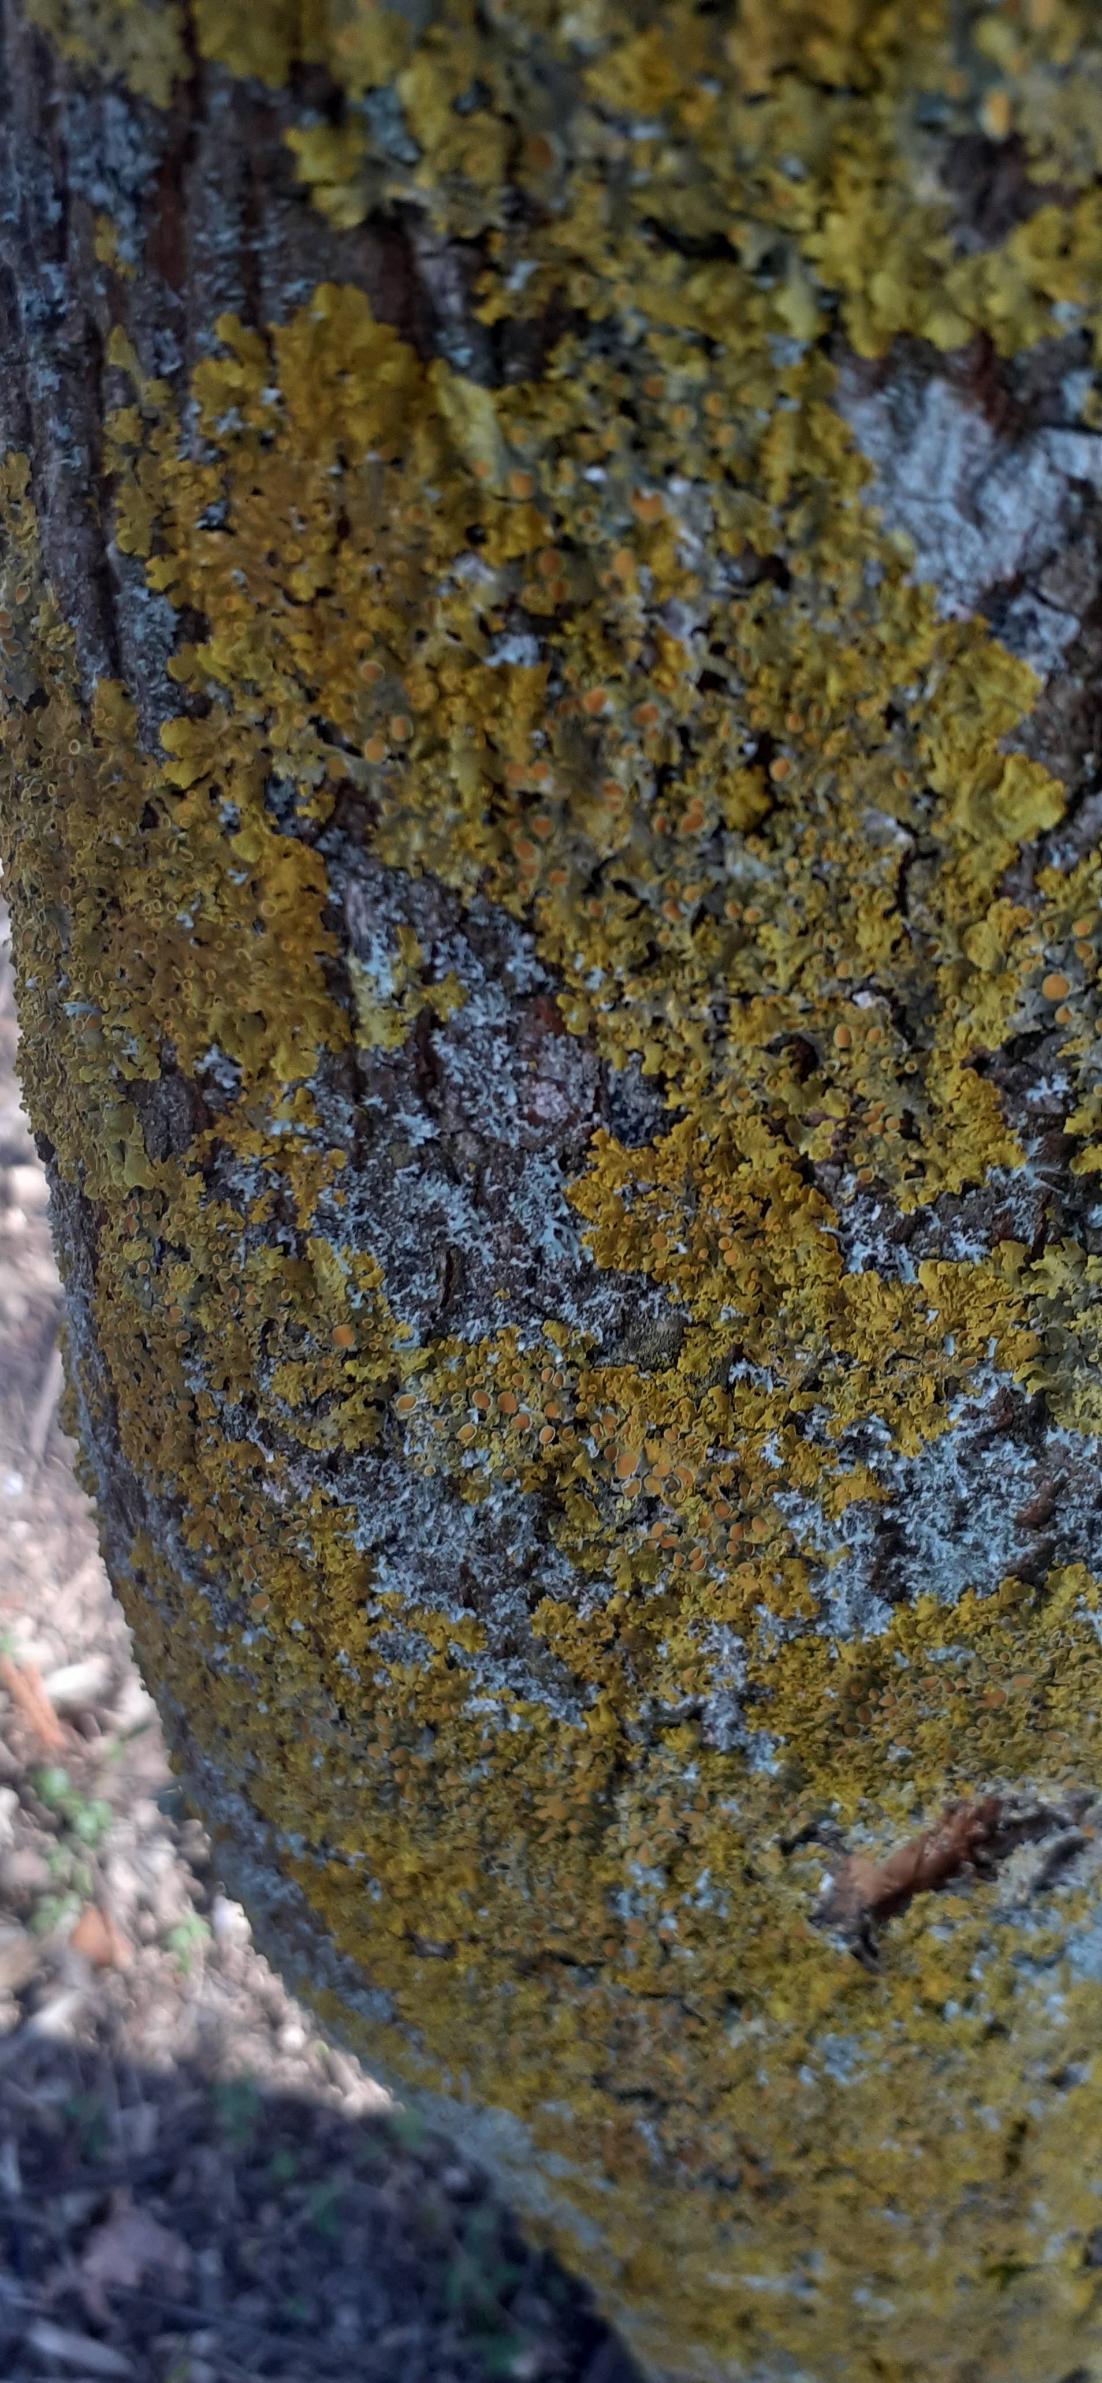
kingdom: Fungi
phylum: Ascomycota
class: Lecanoromycetes
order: Teloschistales
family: Teloschistaceae
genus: Xanthoria
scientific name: Xanthoria parietina
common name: Almindelig væggelav
